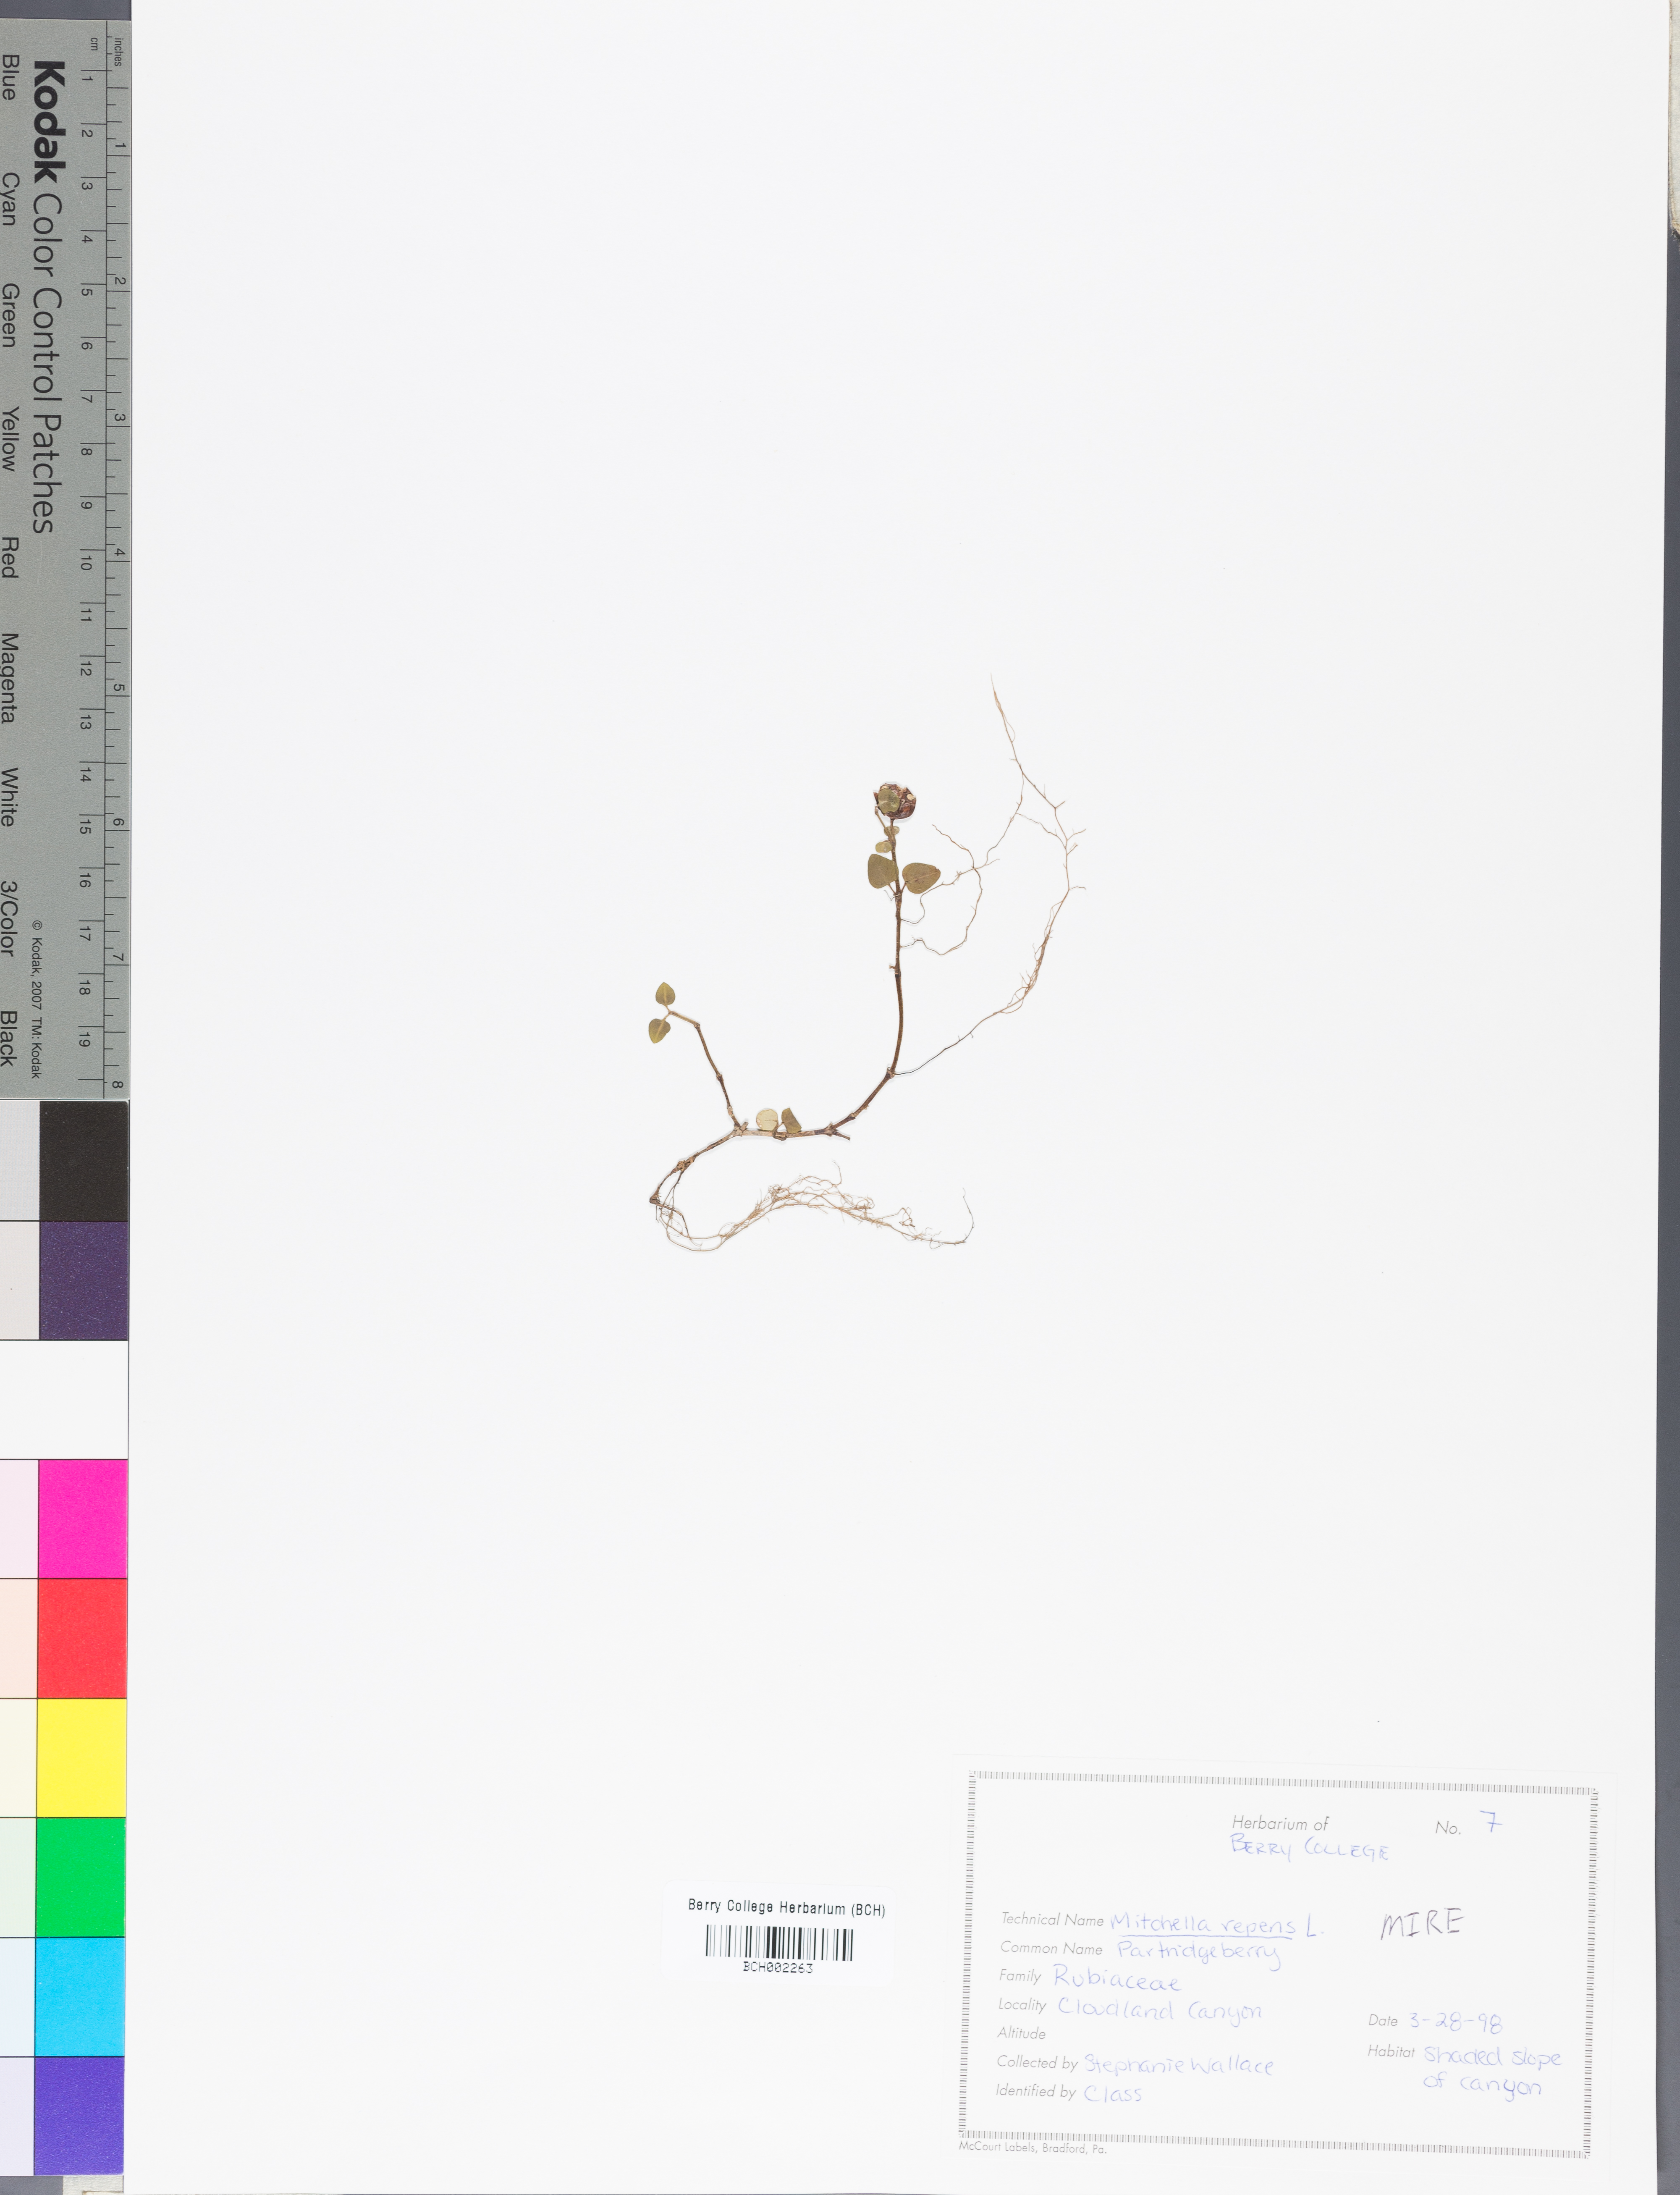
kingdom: Plantae
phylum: Tracheophyta
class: Magnoliopsida
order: Gentianales
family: Rubiaceae
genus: Mitchella
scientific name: Mitchella repens
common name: Partridge-berry
